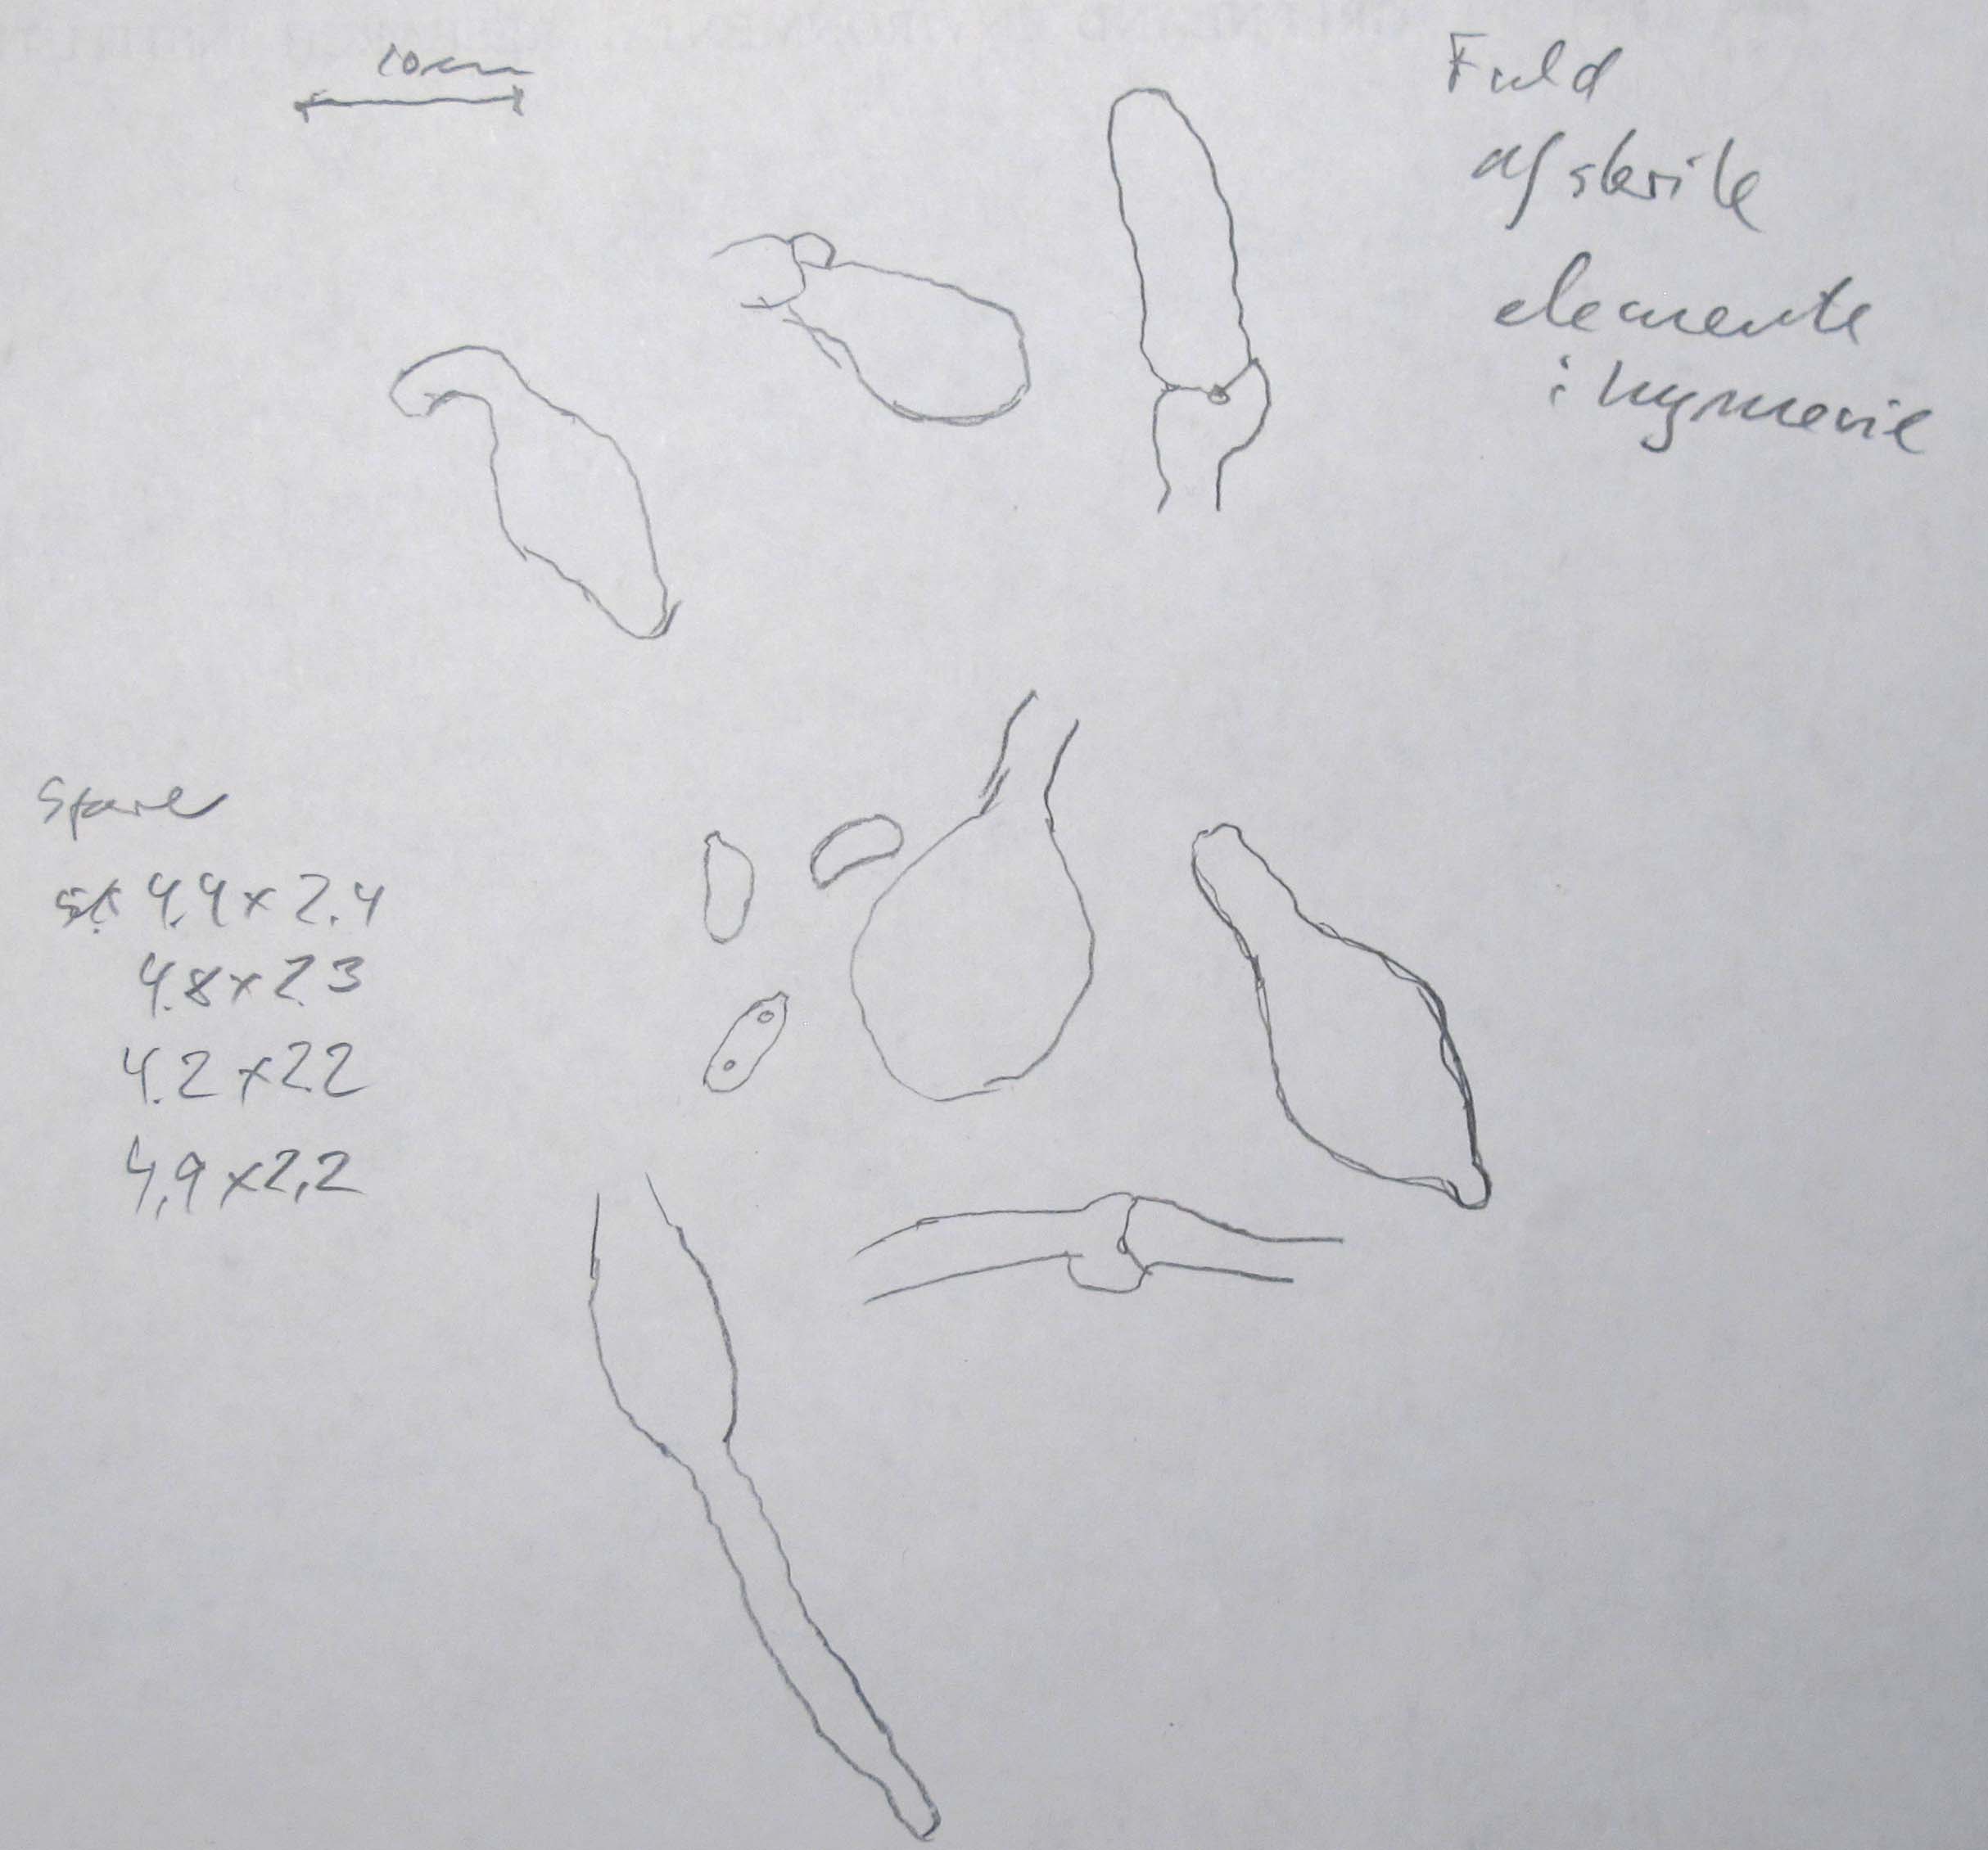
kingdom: Fungi
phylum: Basidiomycota
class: Agaricomycetes
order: Polyporales
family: Incrustoporiaceae
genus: Tyromyces
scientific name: Tyromyces chioneus
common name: stor blødporesvamp
